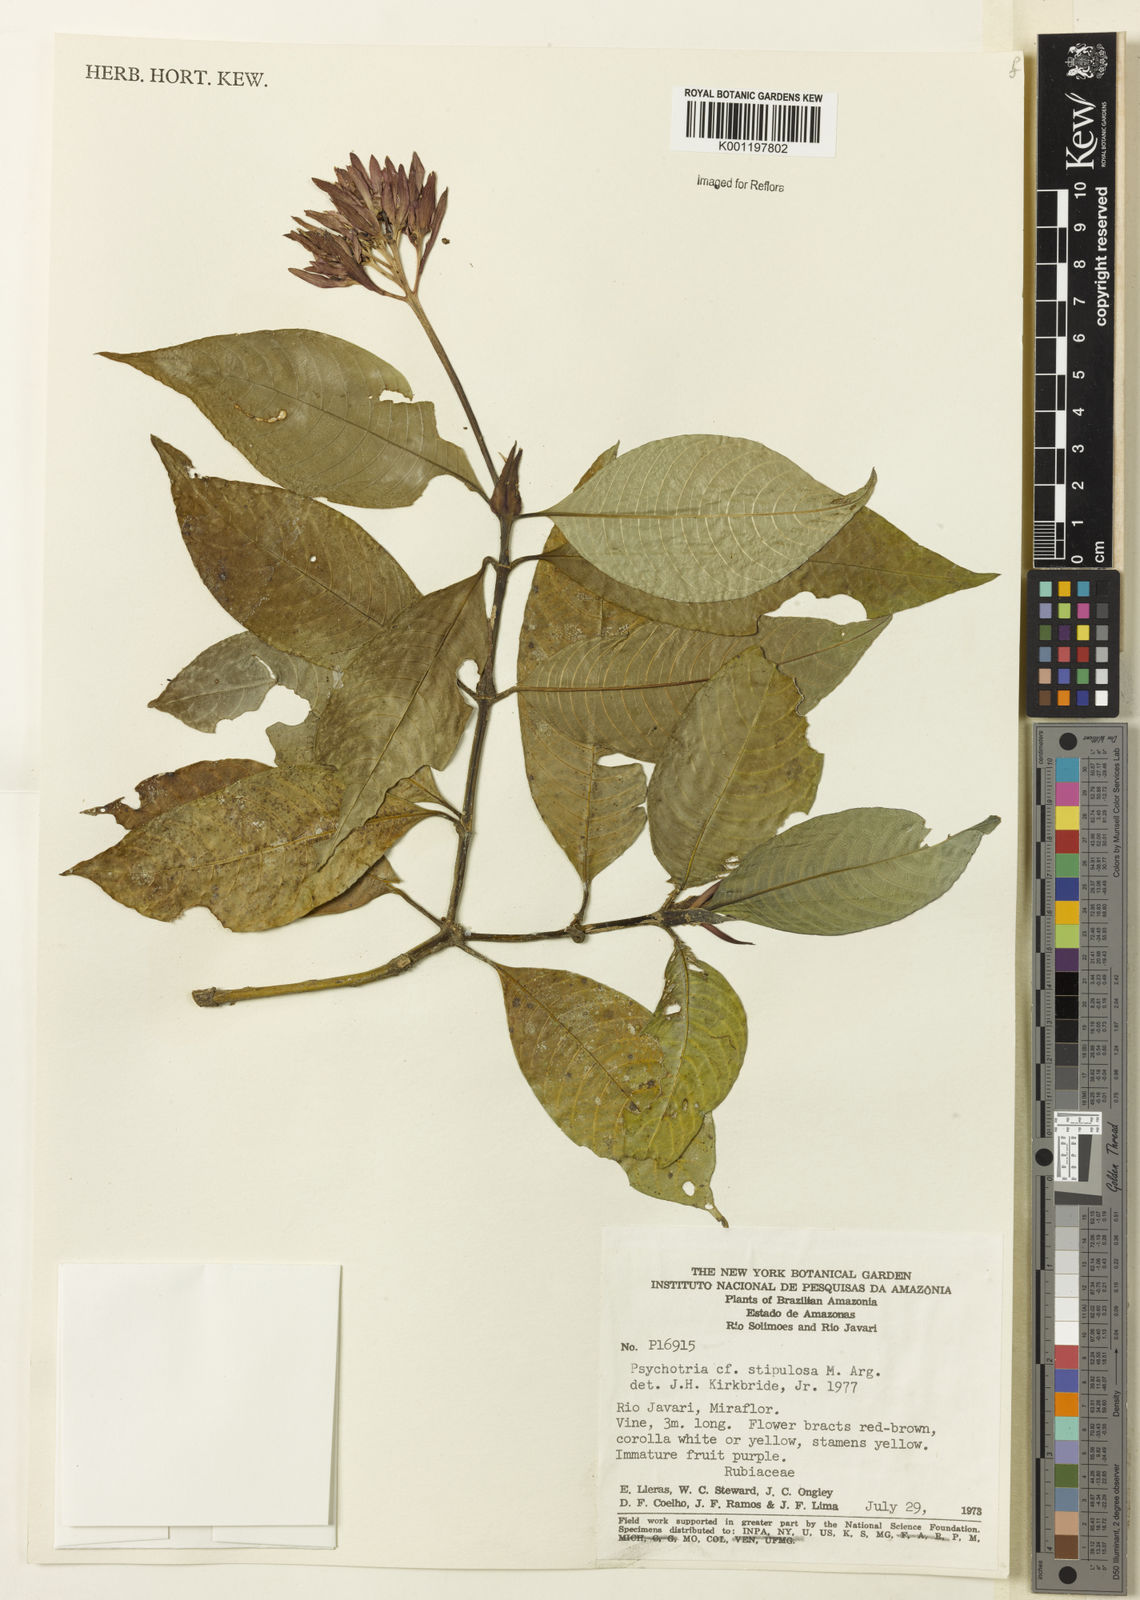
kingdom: Plantae
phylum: Tracheophyta
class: Magnoliopsida
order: Gentianales
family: Rubiaceae
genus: Psychotria
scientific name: Psychotria
